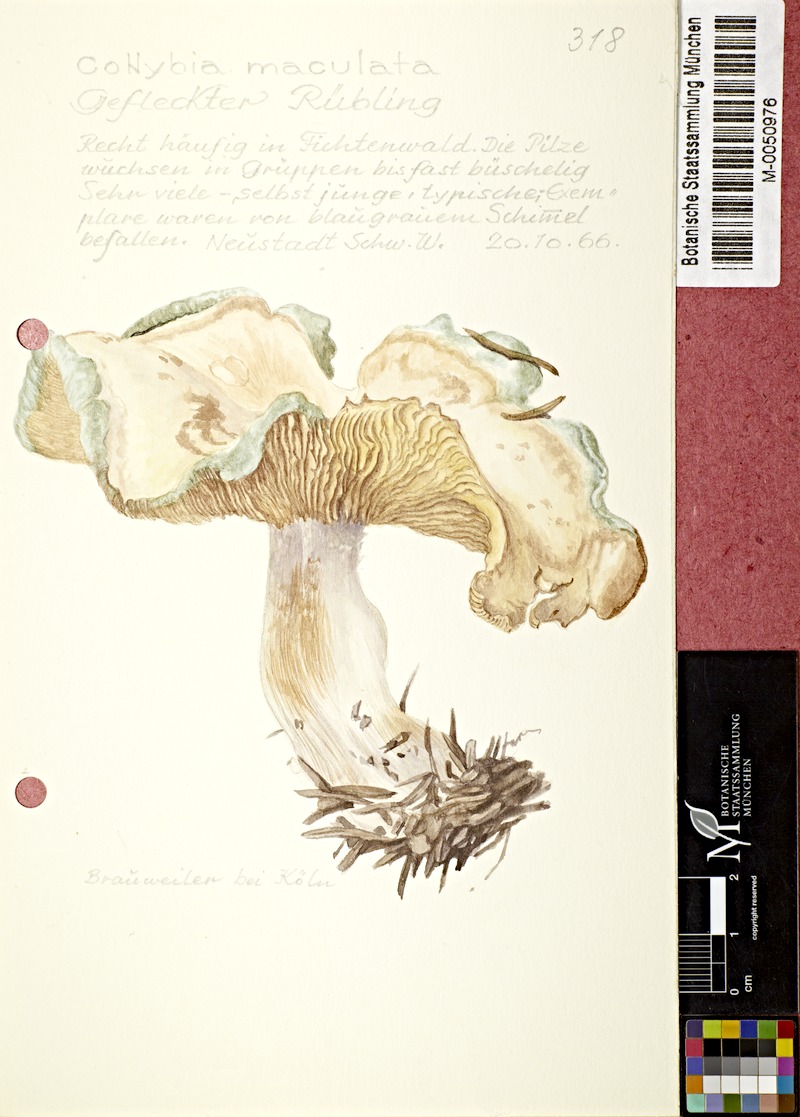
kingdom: Fungi
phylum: Basidiomycota
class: Agaricomycetes
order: Agaricales
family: Omphalotaceae
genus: Rhodocollybia
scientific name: Rhodocollybia maculata
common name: Spotted tough-shank
